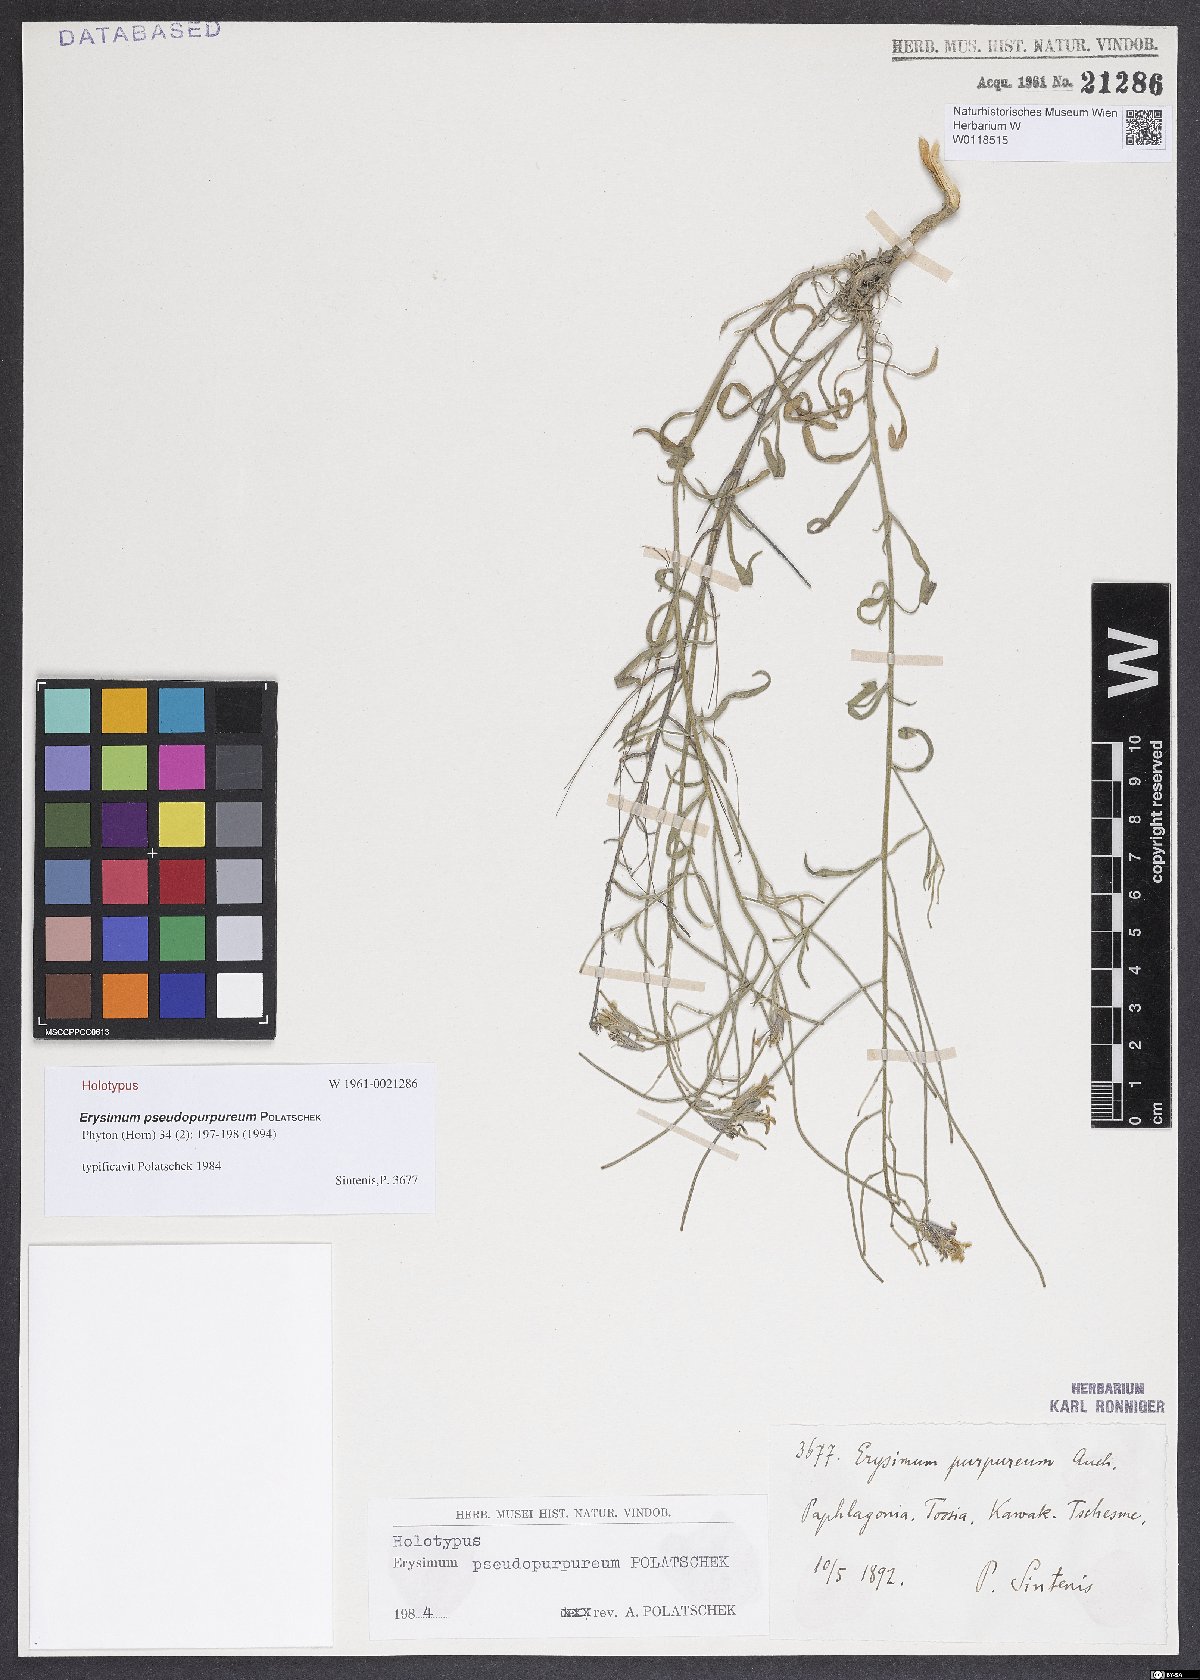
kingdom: Plantae
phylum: Tracheophyta
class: Magnoliopsida
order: Brassicales
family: Brassicaceae
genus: Erysimum
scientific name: Erysimum pseudopurpureum
